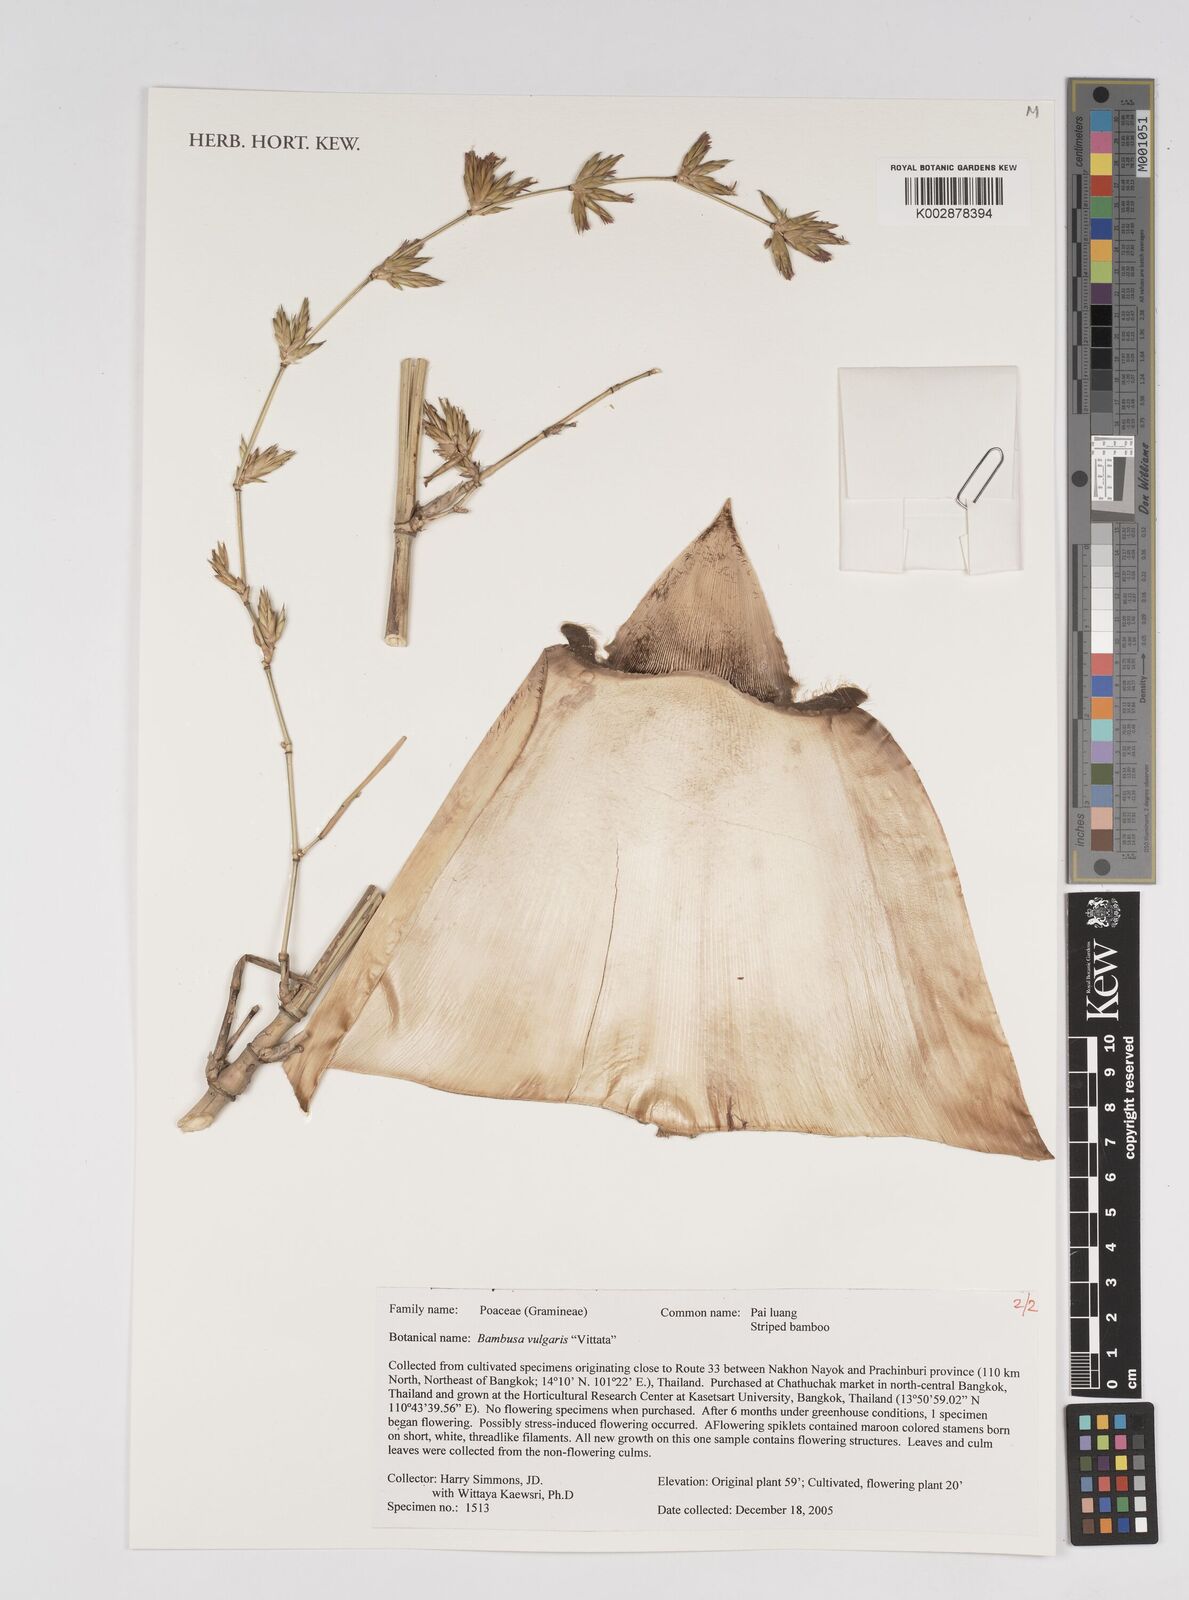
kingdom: Plantae
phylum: Tracheophyta
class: Liliopsida
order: Poales
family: Poaceae
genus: Bambusa
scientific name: Bambusa
